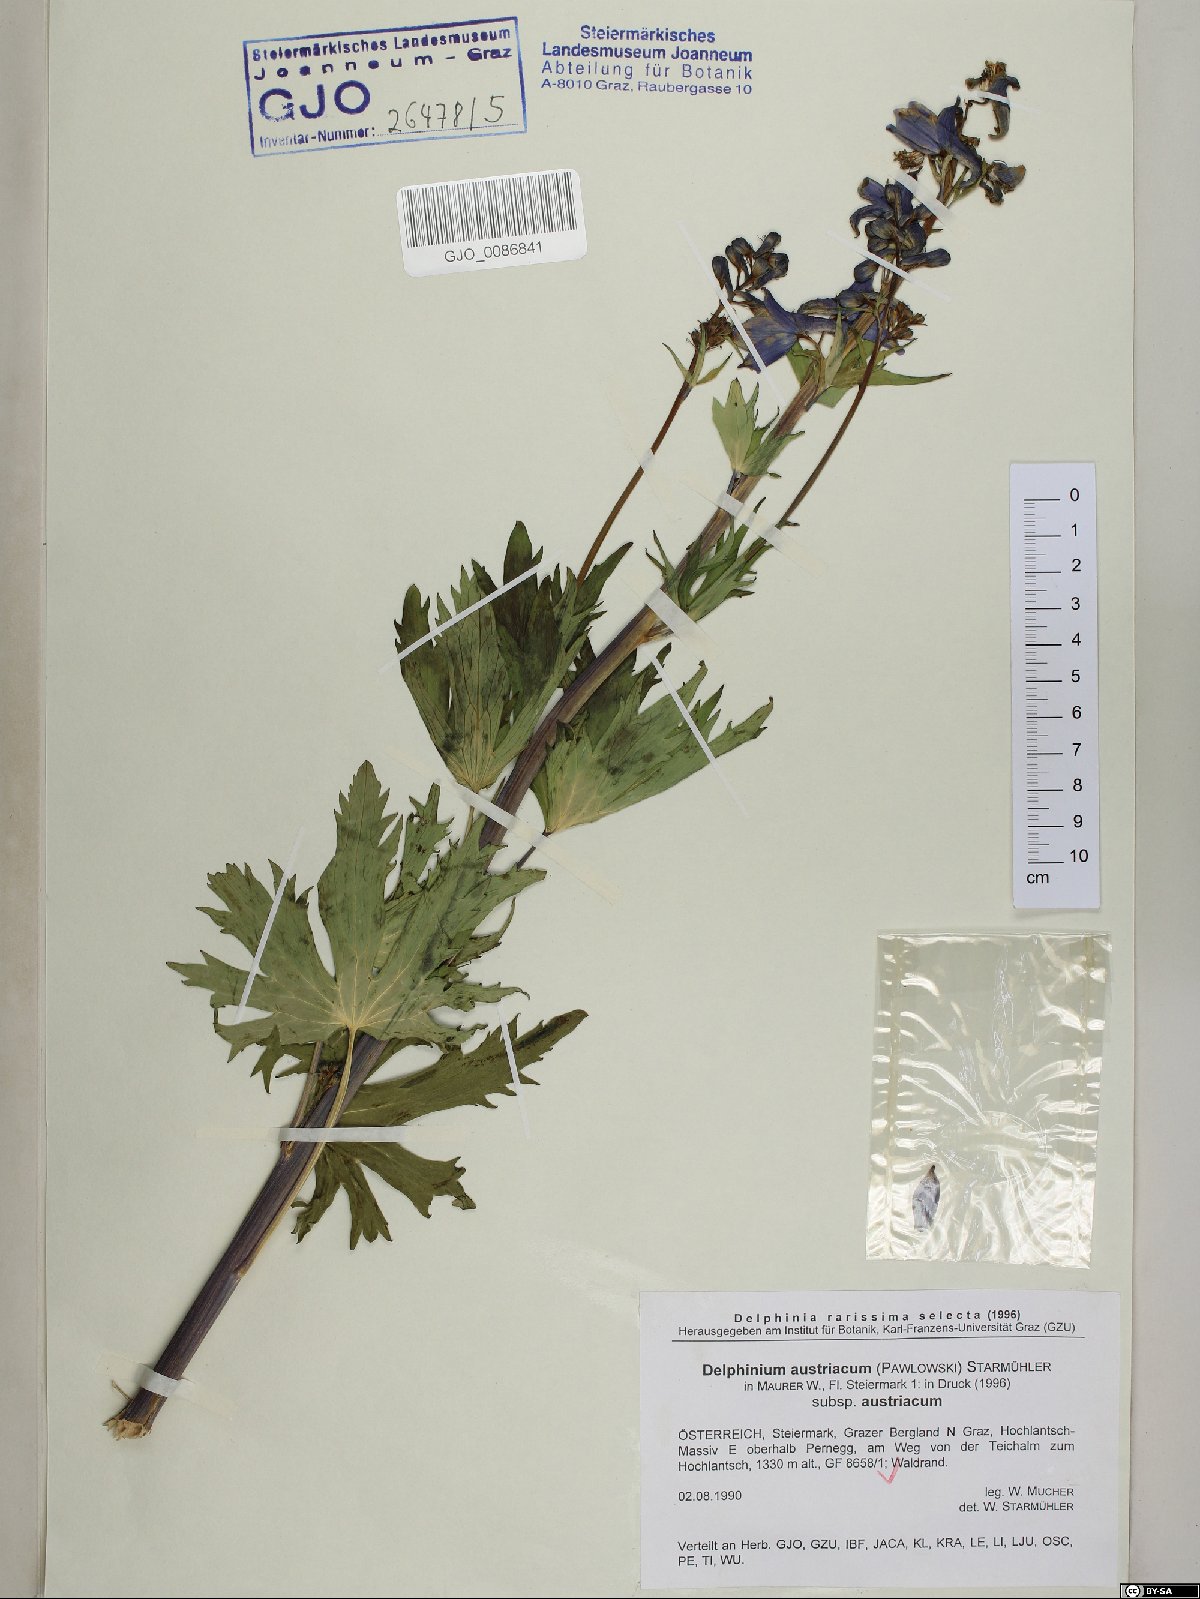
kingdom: Plantae
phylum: Tracheophyta
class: Magnoliopsida
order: Ranunculales
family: Ranunculaceae
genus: Delphinium
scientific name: Delphinium austriacum
